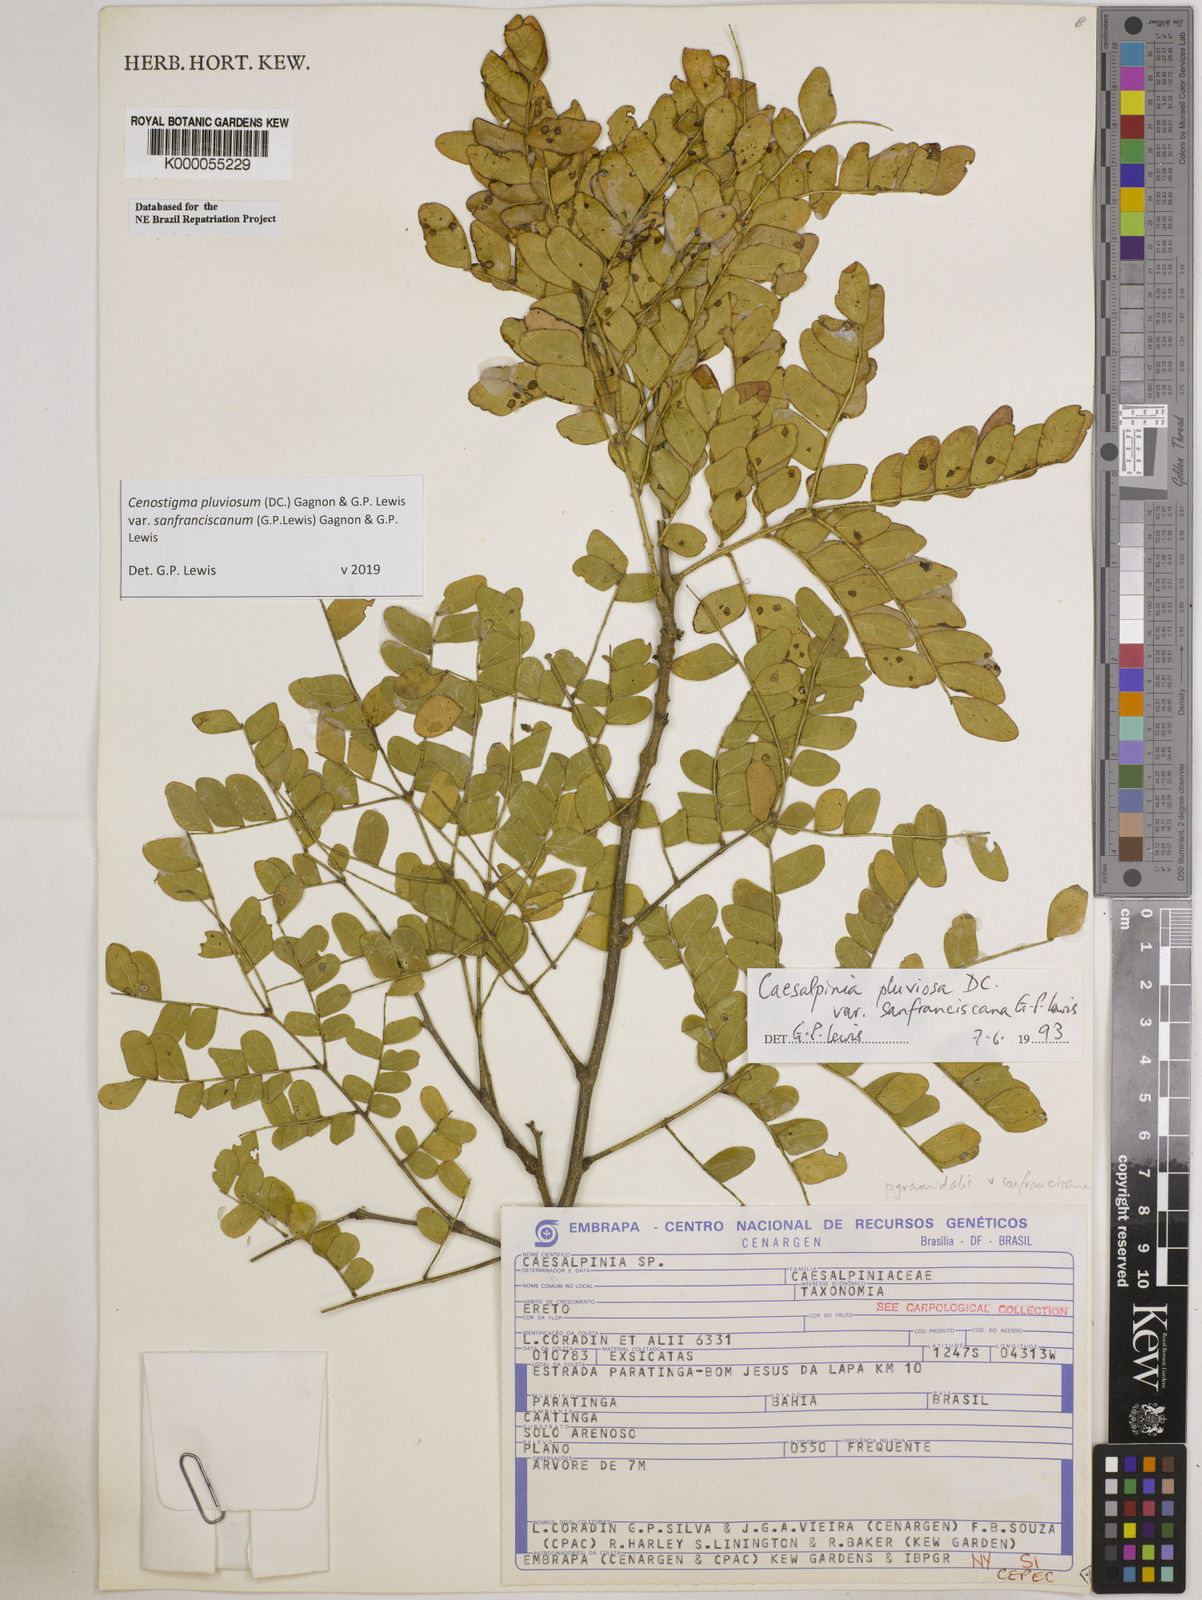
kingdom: Plantae
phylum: Tracheophyta
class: Magnoliopsida
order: Fabales
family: Fabaceae
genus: Cenostigma
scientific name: Cenostigma pluviosum
